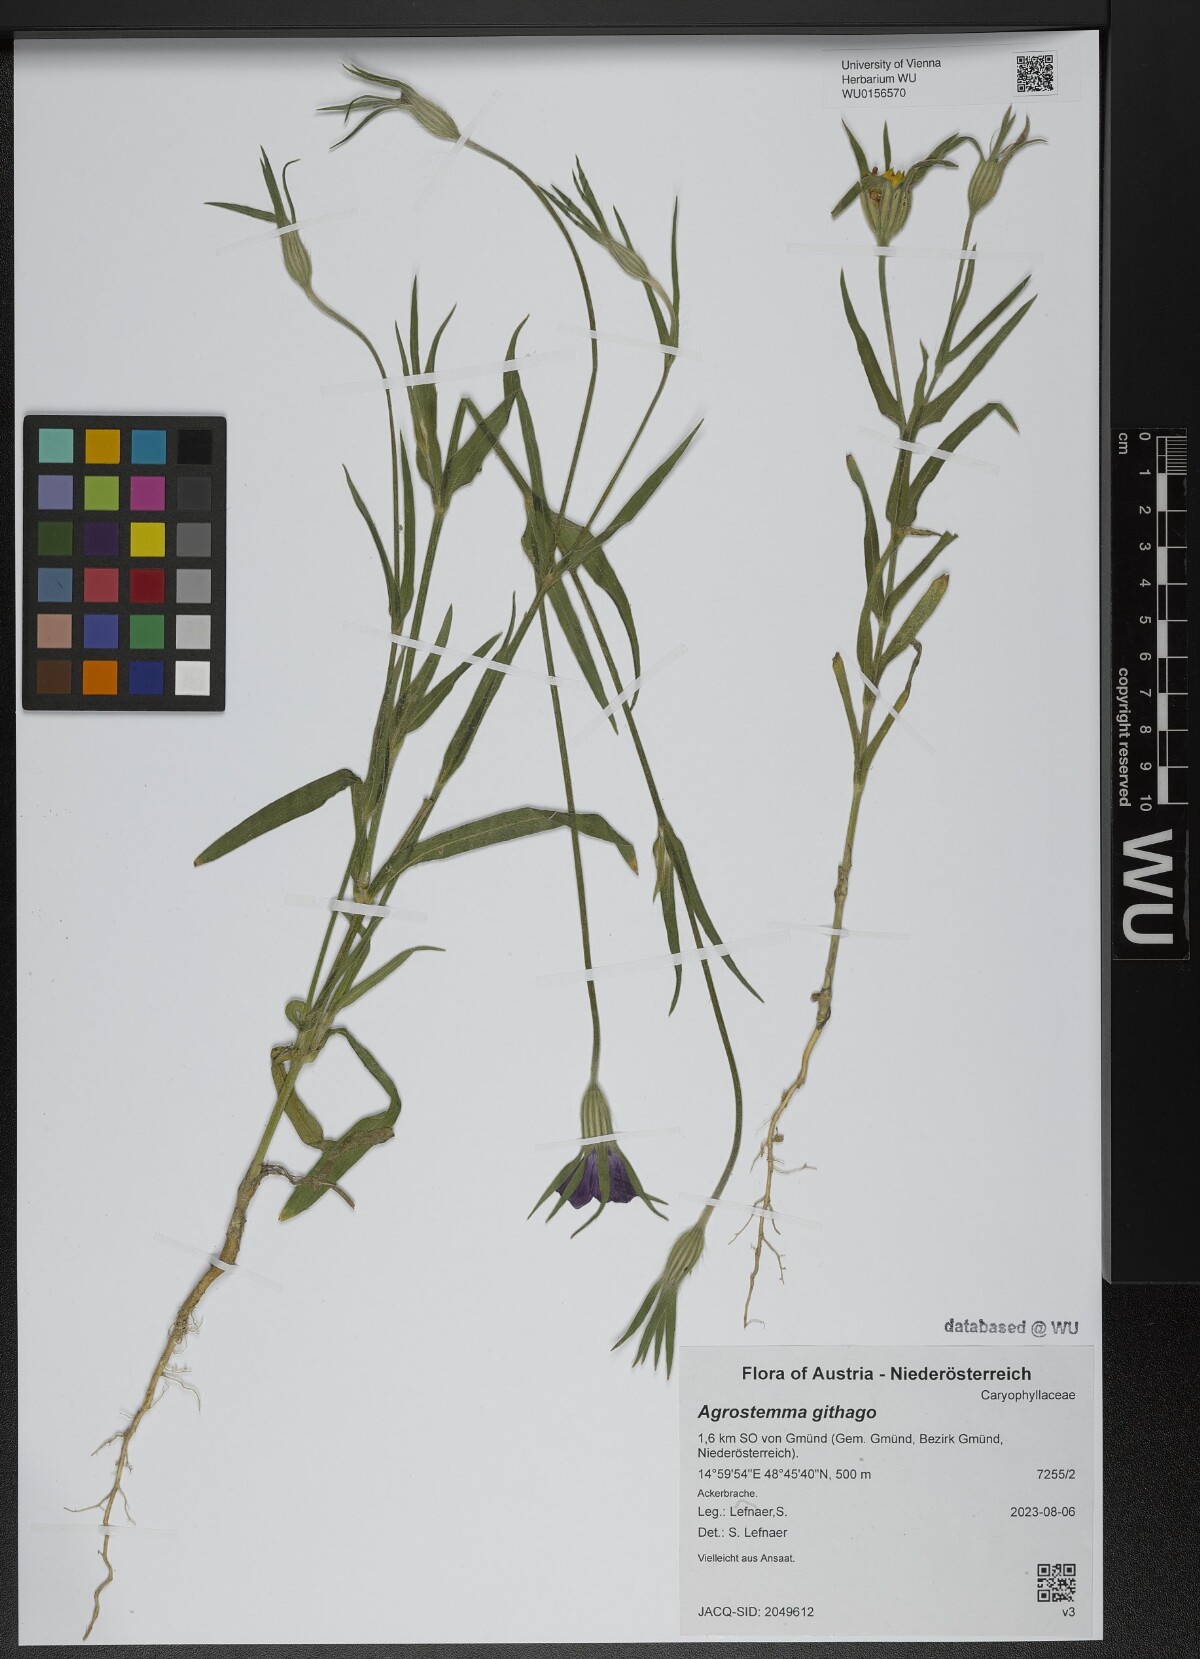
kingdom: Plantae
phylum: Tracheophyta
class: Magnoliopsida
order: Caryophyllales
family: Caryophyllaceae
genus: Agrostemma
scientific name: Agrostemma githago
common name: Common corncockle
